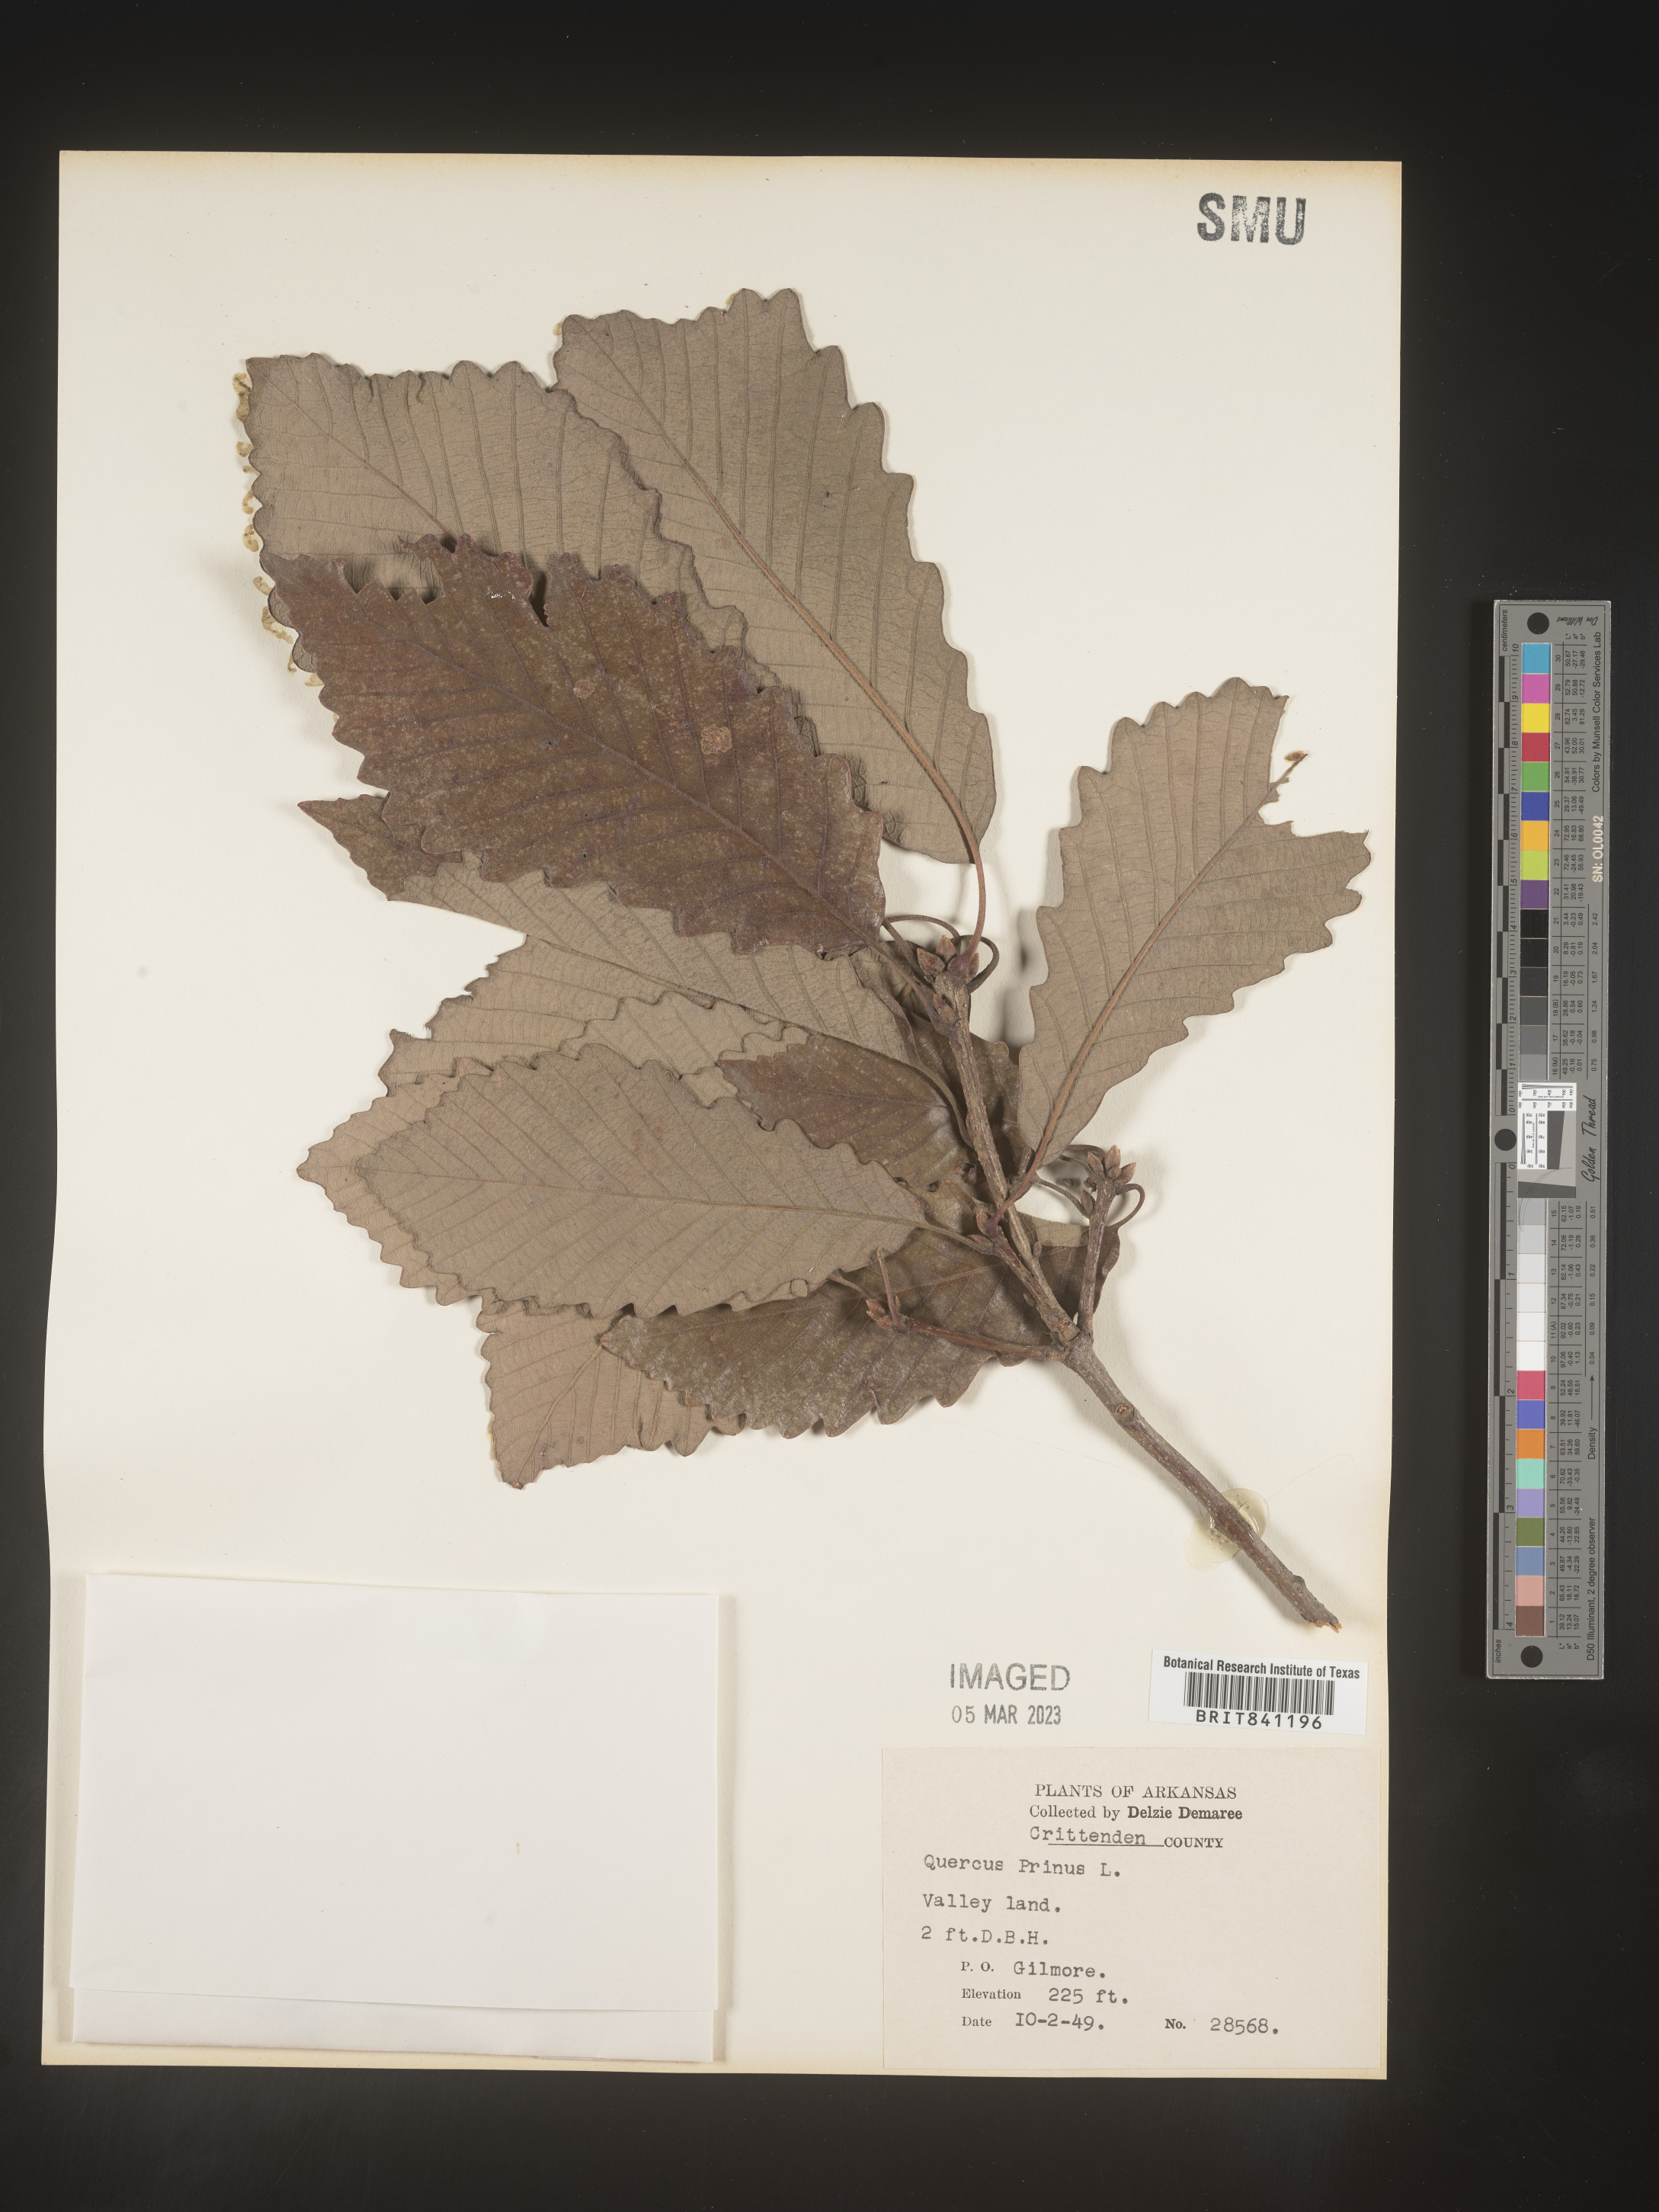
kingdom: Plantae
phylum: Tracheophyta
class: Magnoliopsida
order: Fagales
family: Fagaceae
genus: Quercus
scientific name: Quercus michauxii
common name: Swamp chestnut oak
